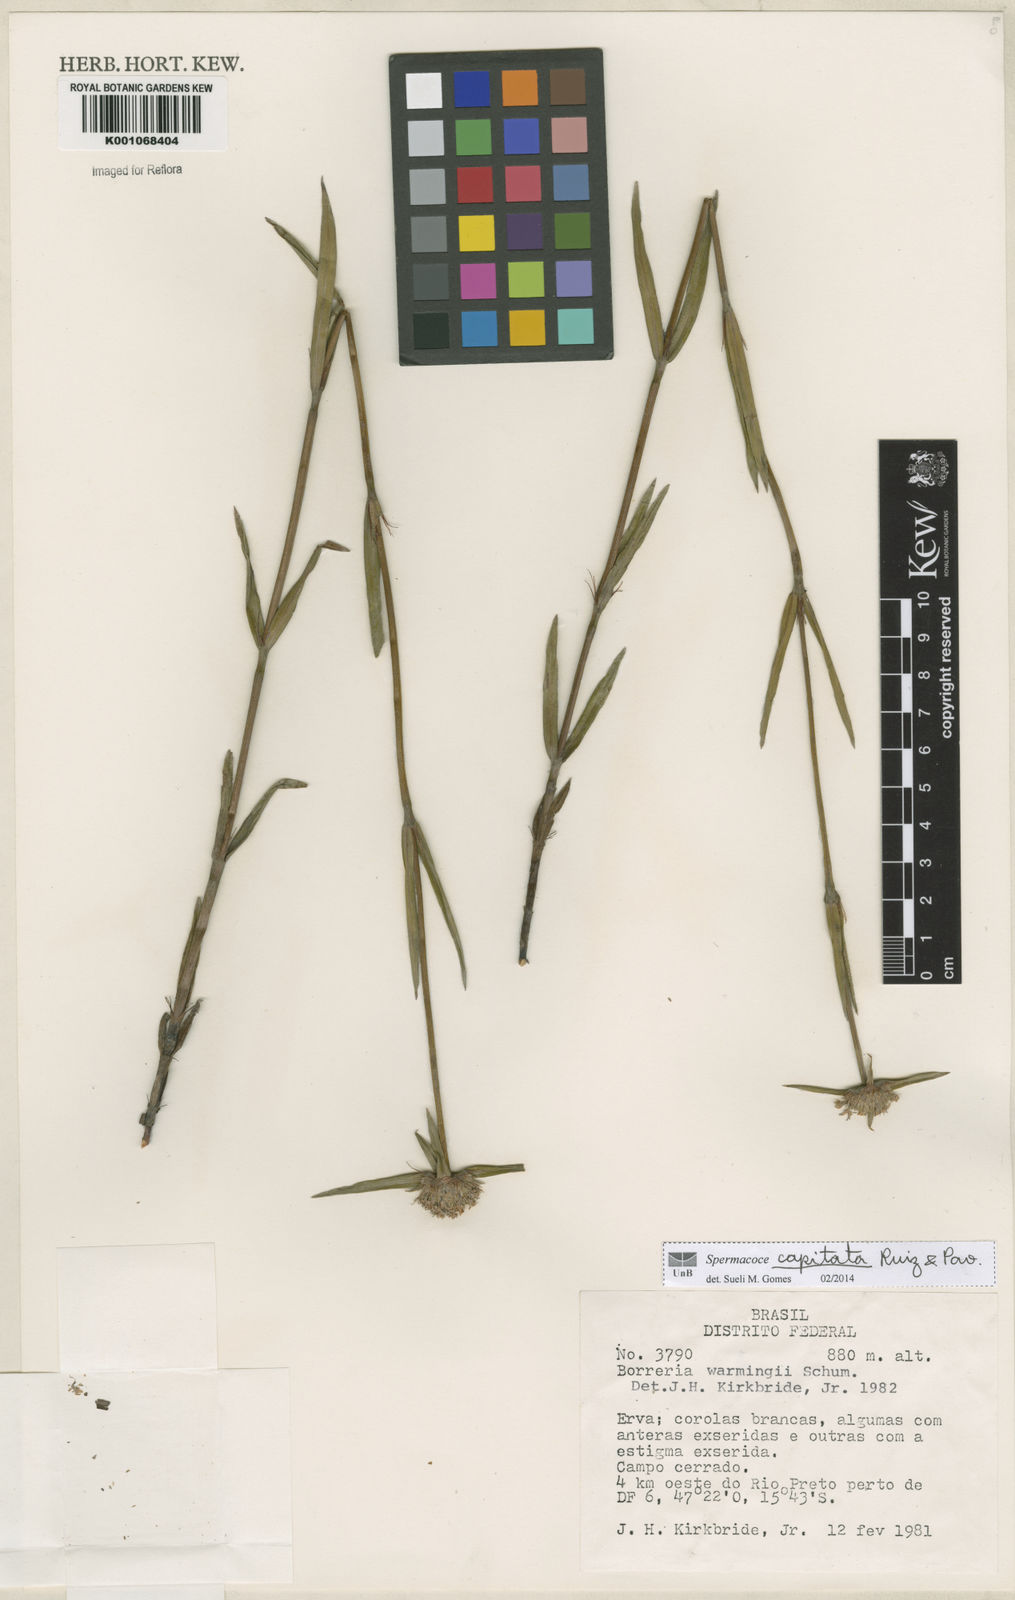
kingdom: Plantae
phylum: Tracheophyta
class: Magnoliopsida
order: Gentianales
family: Rubiaceae
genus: Spermacoce
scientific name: Spermacoce capitata
